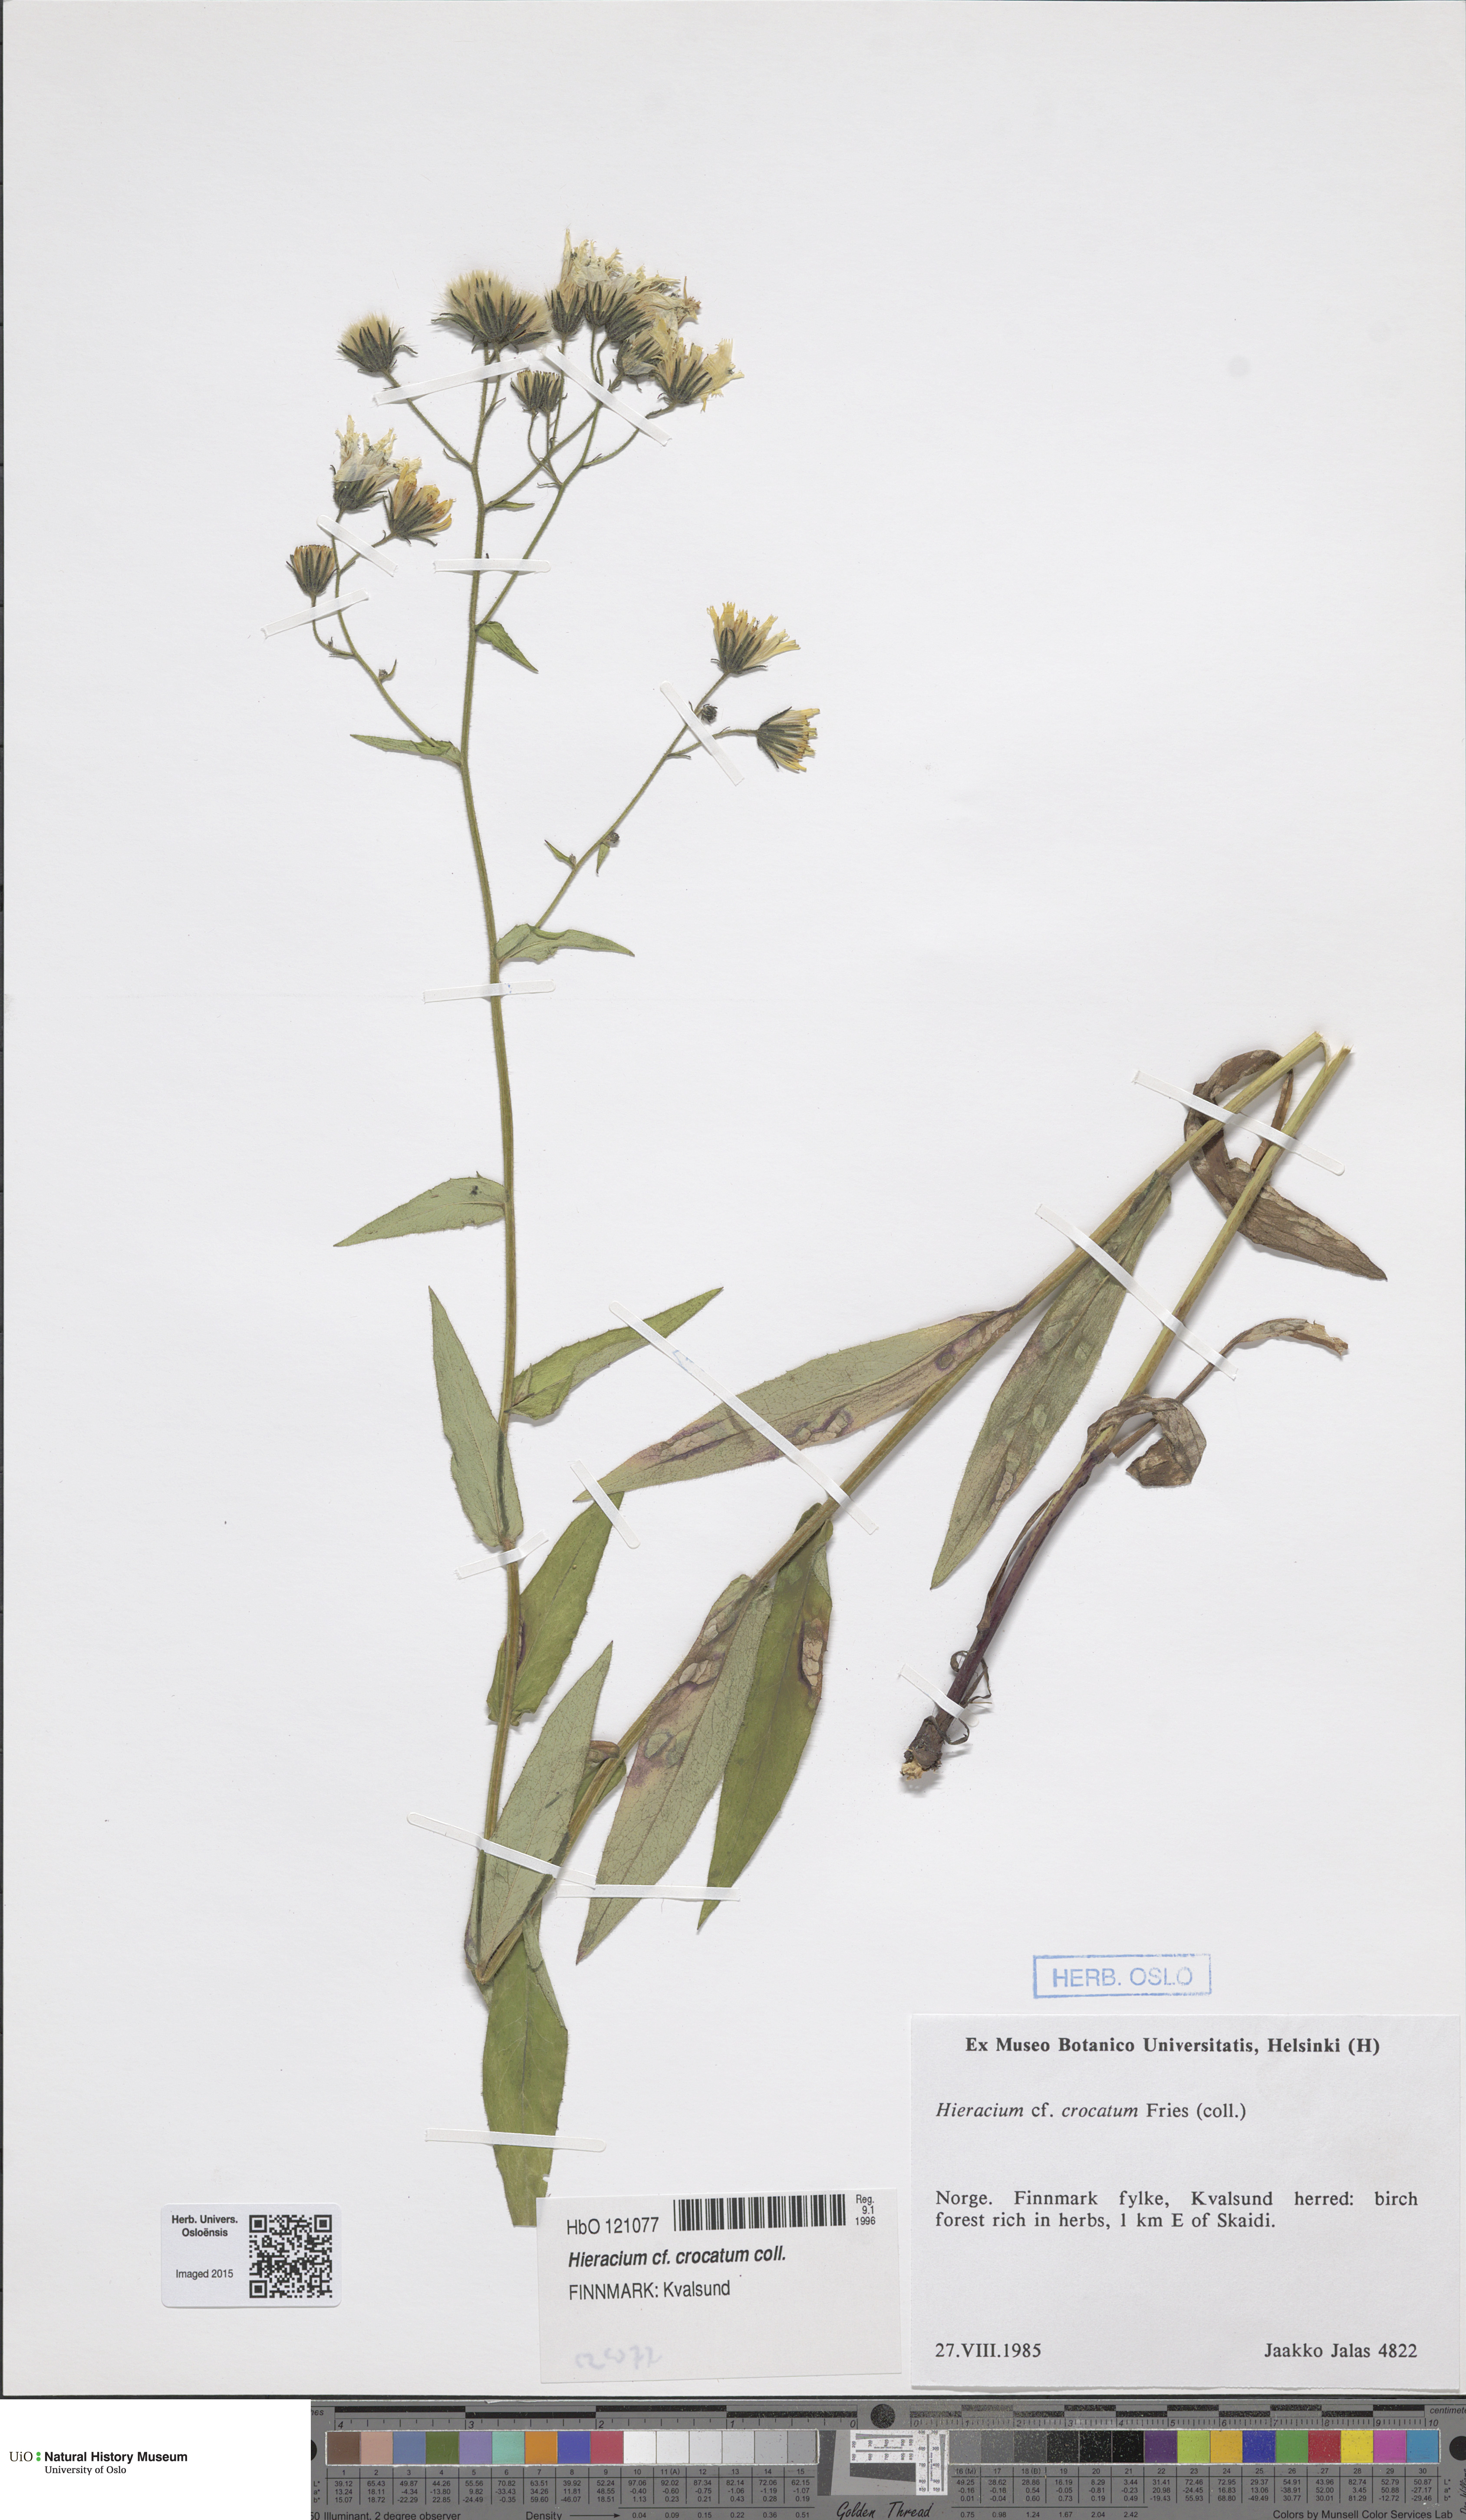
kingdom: Plantae
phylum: Tracheophyta
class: Magnoliopsida
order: Asterales
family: Asteraceae
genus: Hieracium
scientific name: Hieracium crocatum
